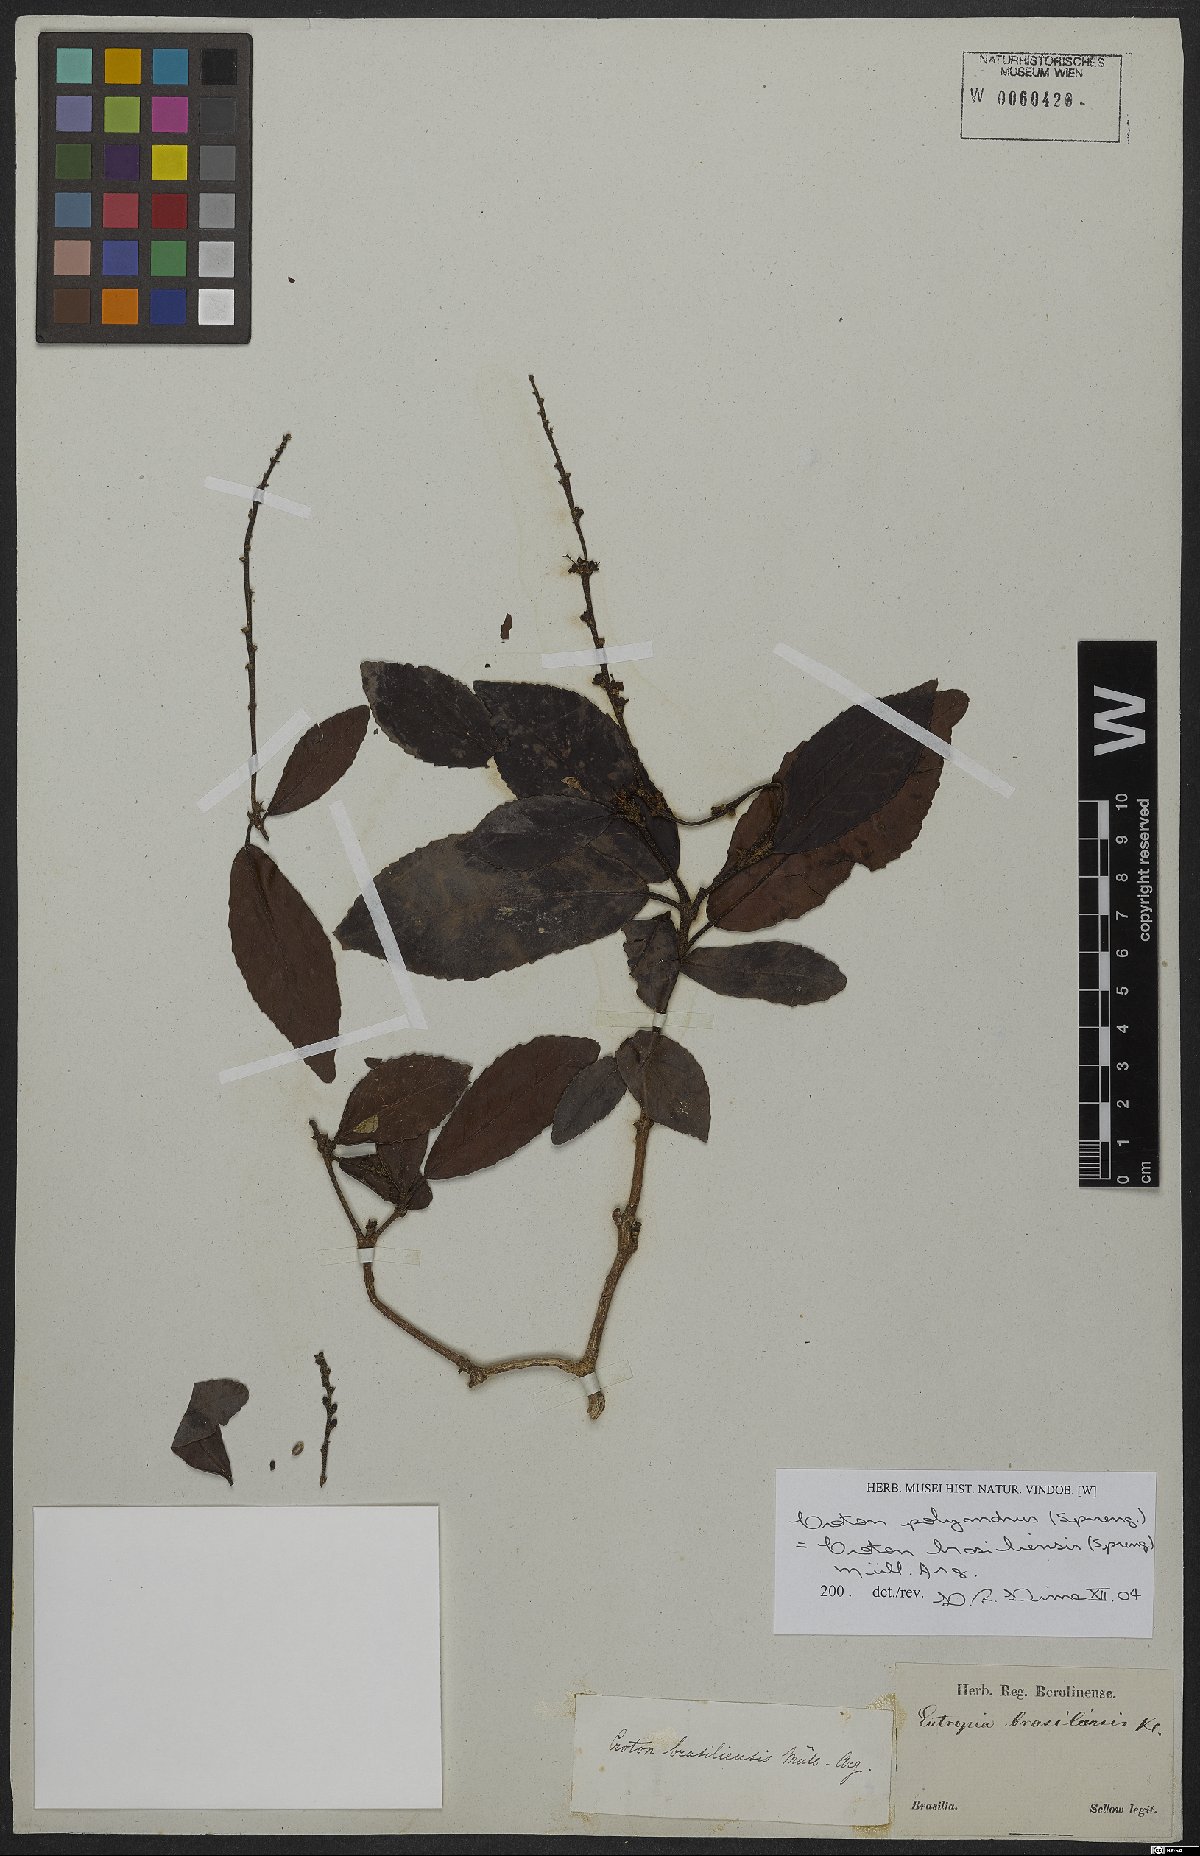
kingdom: Plantae
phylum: Tracheophyta
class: Magnoliopsida
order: Malpighiales
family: Euphorbiaceae
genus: Croton
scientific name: Croton polyandrus
